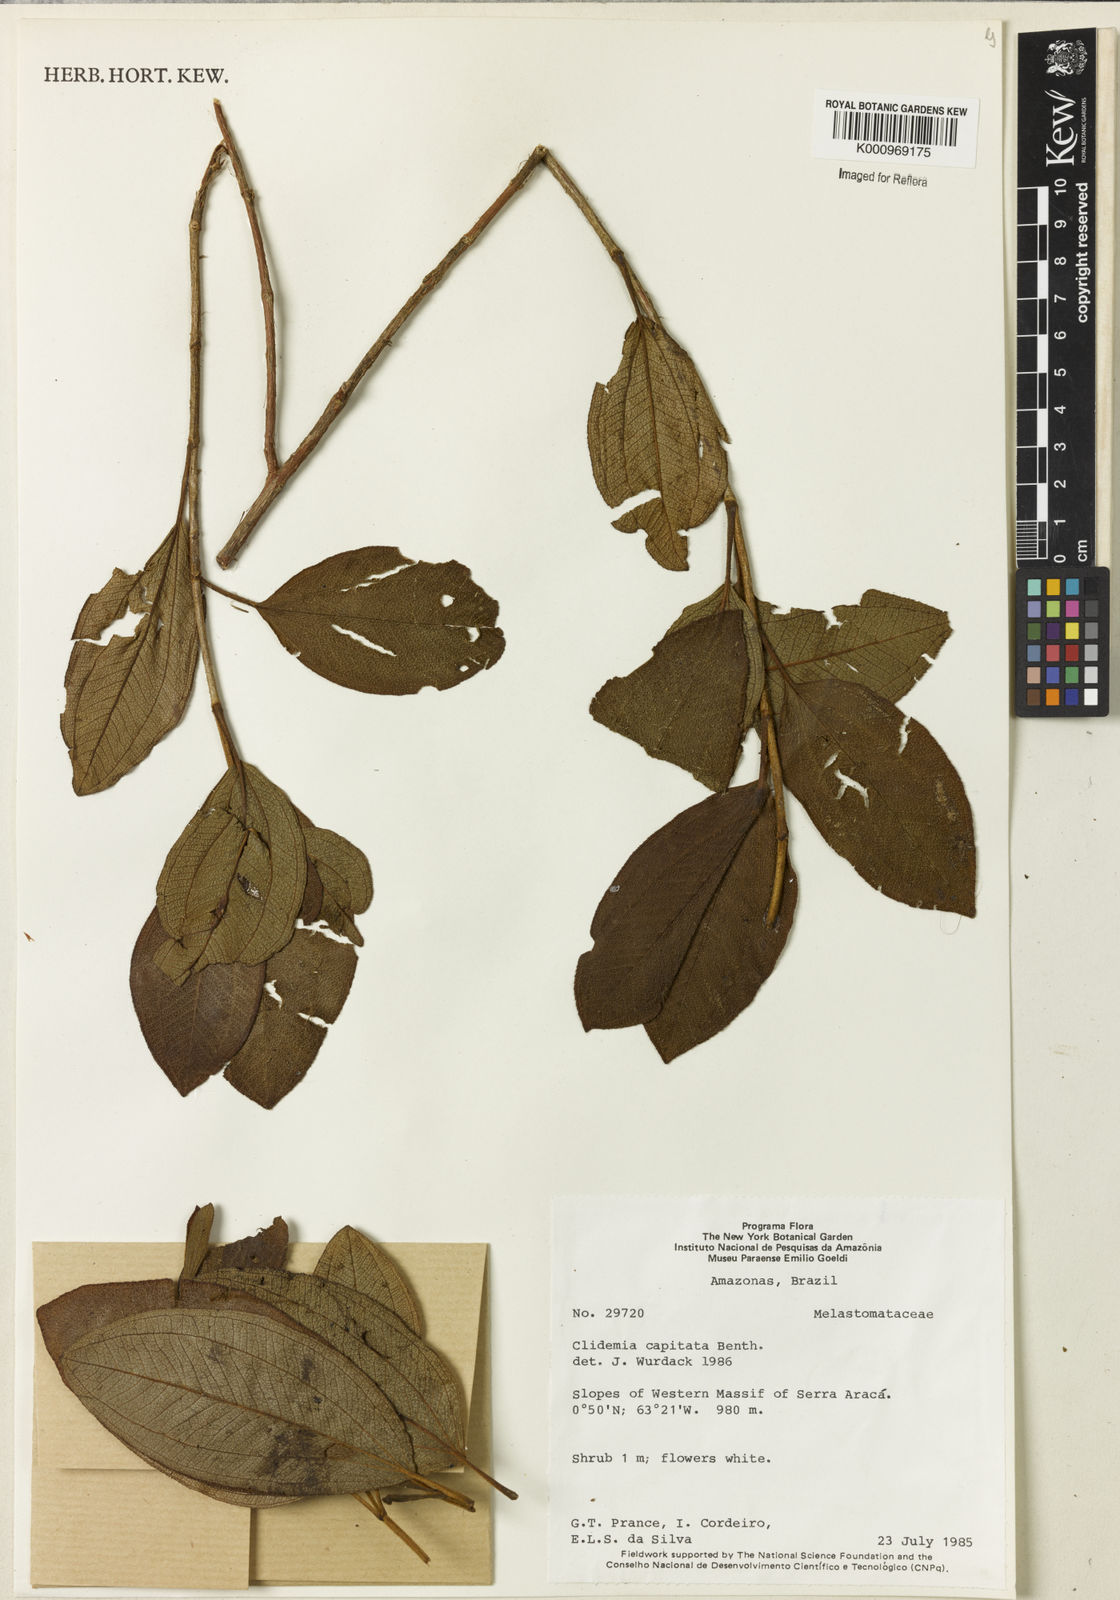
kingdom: Plantae
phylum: Tracheophyta
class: Magnoliopsida
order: Myrtales
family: Melastomataceae
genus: Miconia
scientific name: Miconia benthamii
